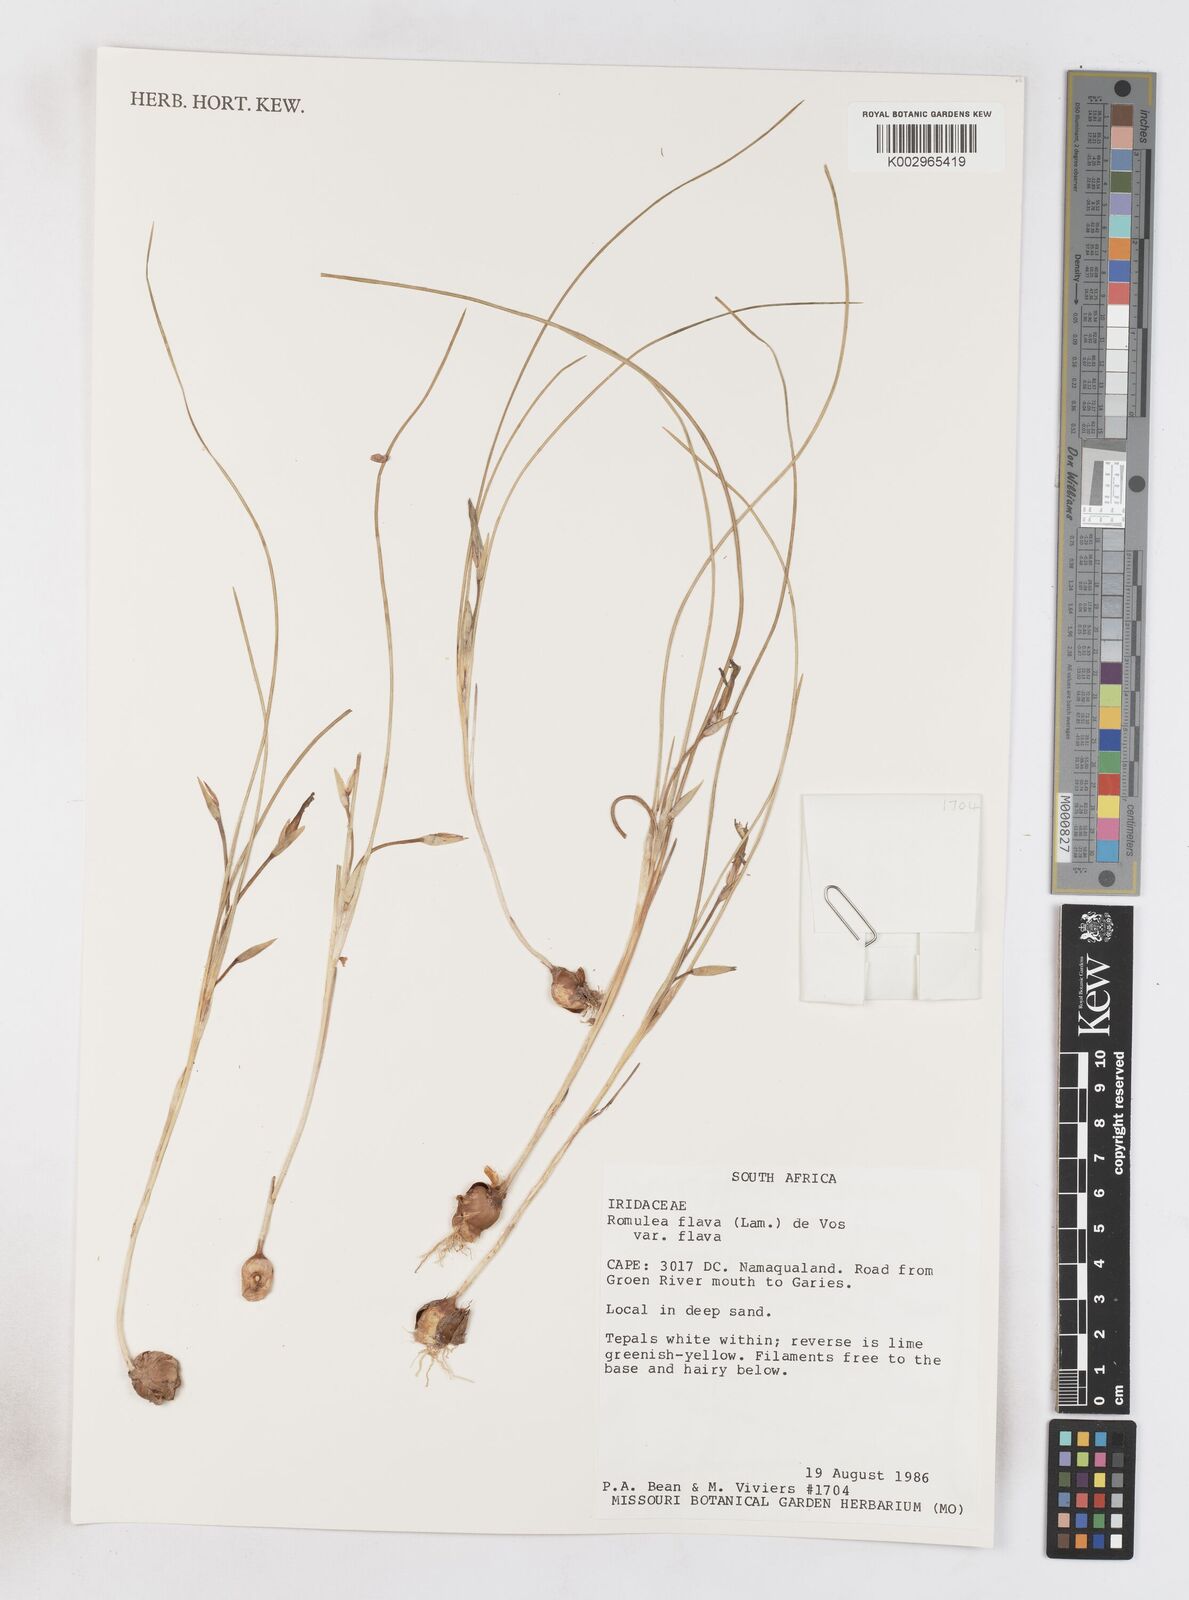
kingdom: Plantae
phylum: Tracheophyta
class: Liliopsida
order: Asparagales
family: Iridaceae
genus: Romulea
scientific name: Romulea flava
